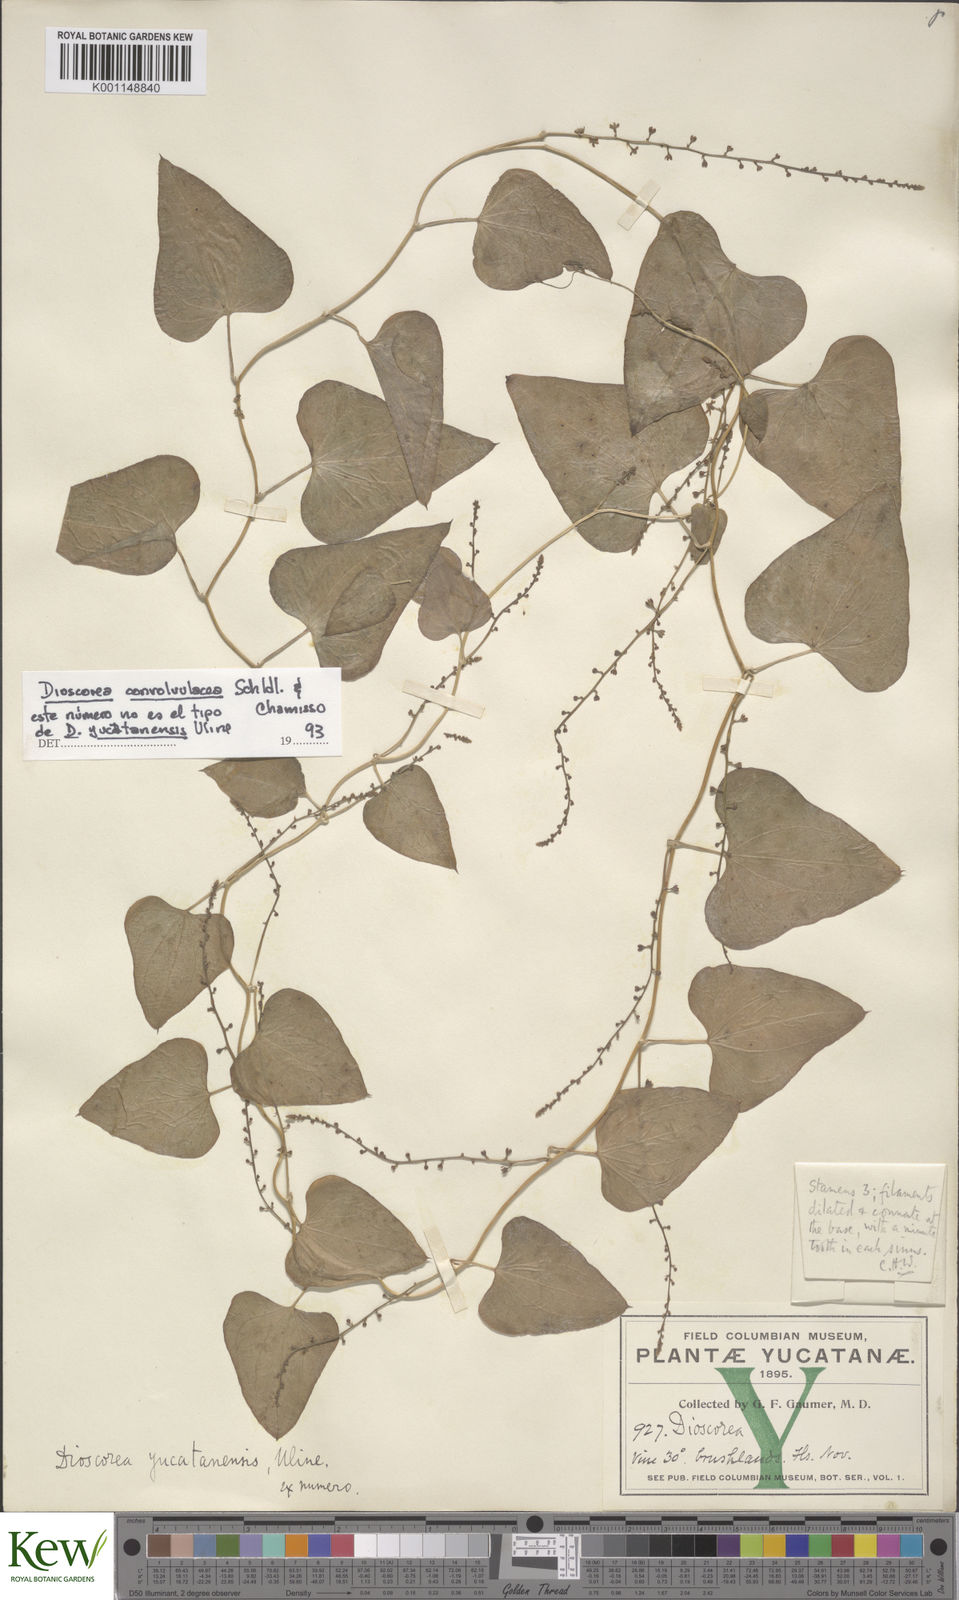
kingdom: Plantae
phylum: Tracheophyta
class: Liliopsida
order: Dioscoreales
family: Dioscoreaceae
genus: Dioscorea
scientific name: Dioscorea convolvulacea
